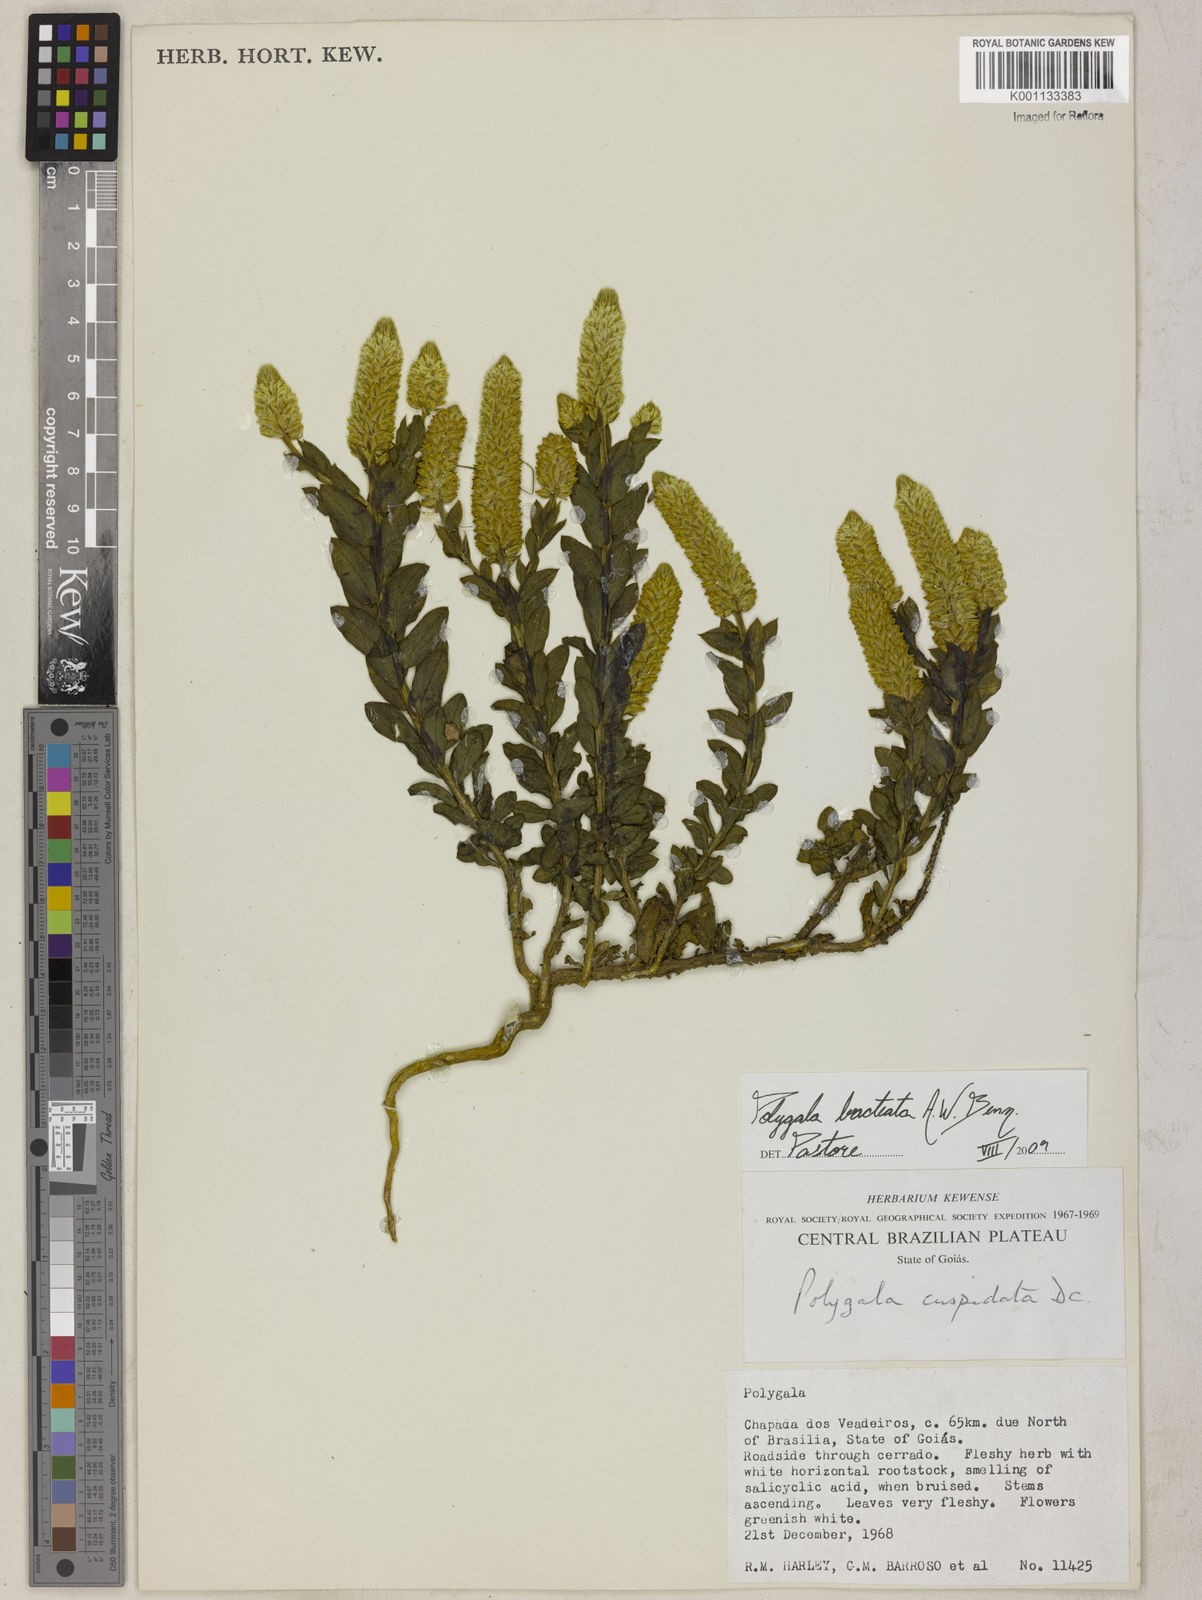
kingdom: Plantae
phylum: Tracheophyta
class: Magnoliopsida
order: Fabales
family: Polygalaceae
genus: Polygala
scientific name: Polygala bracteata
